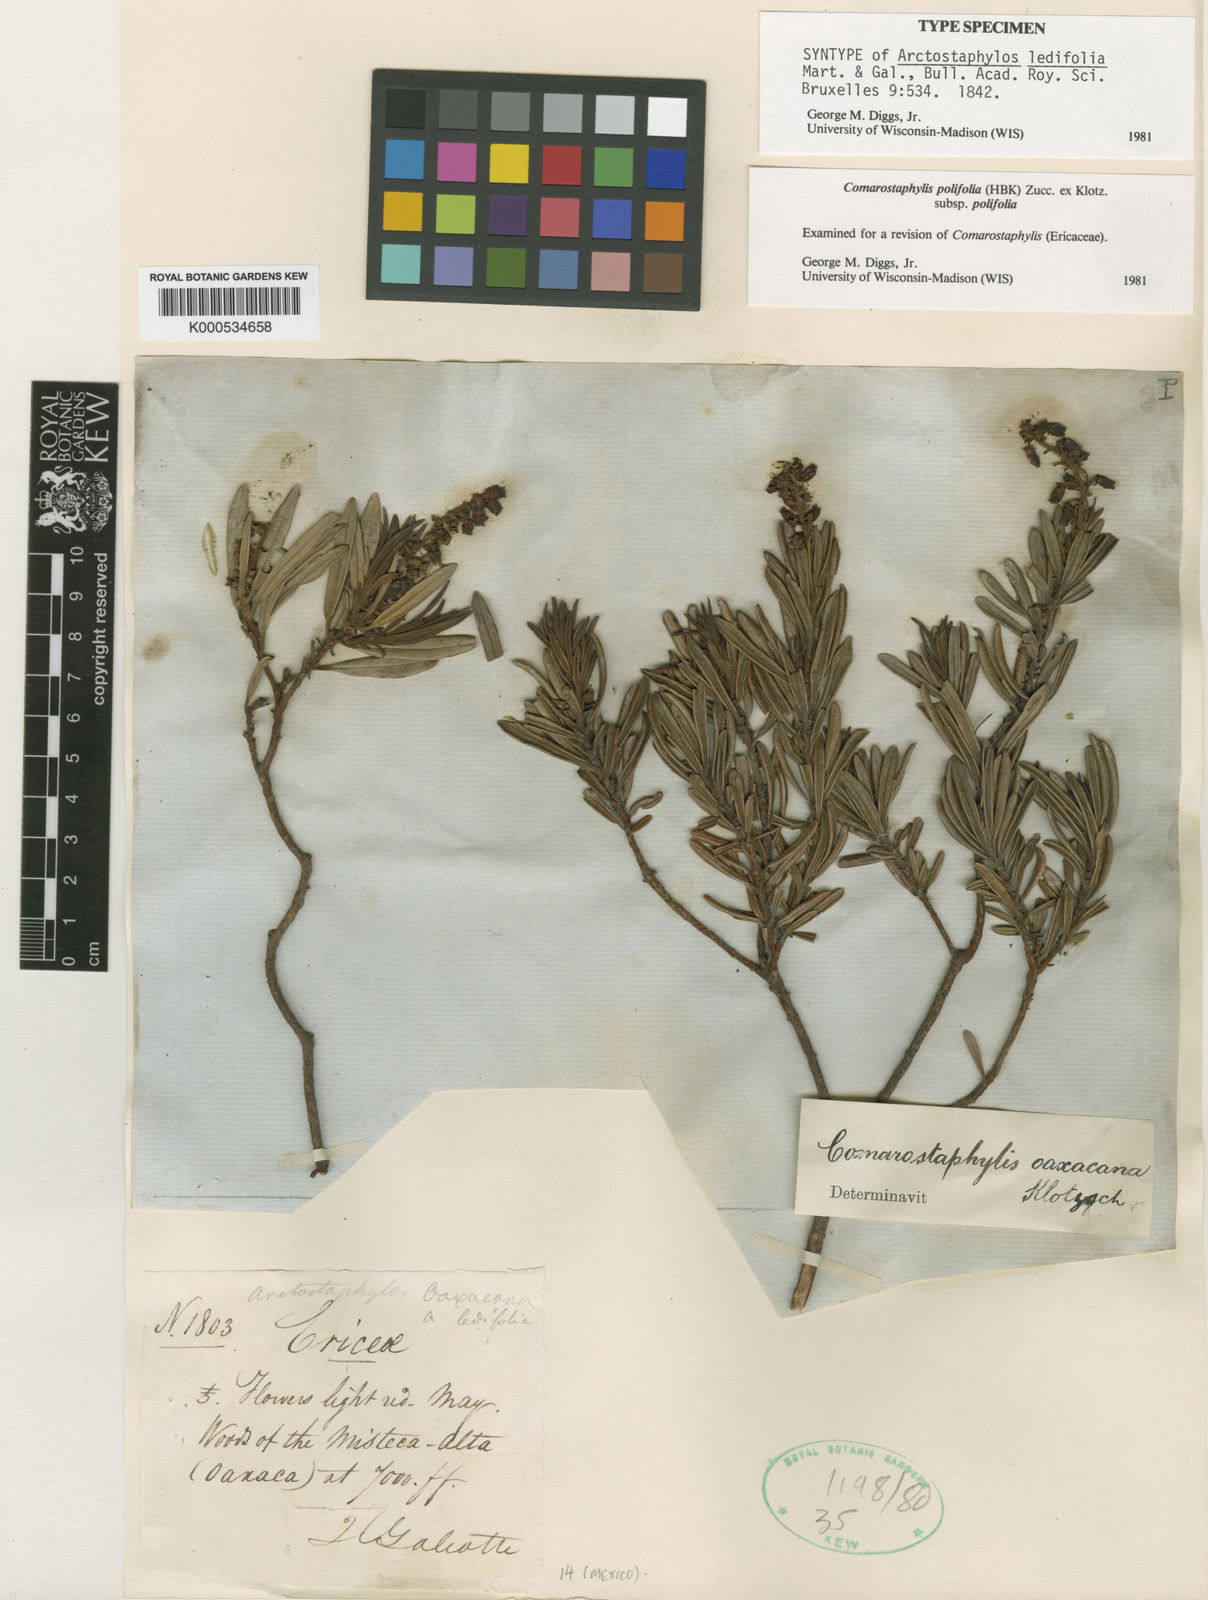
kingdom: Plantae
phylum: Tracheophyta
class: Magnoliopsida
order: Ericales
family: Ericaceae
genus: Comarostaphylis
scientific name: Comarostaphylis polifolia
